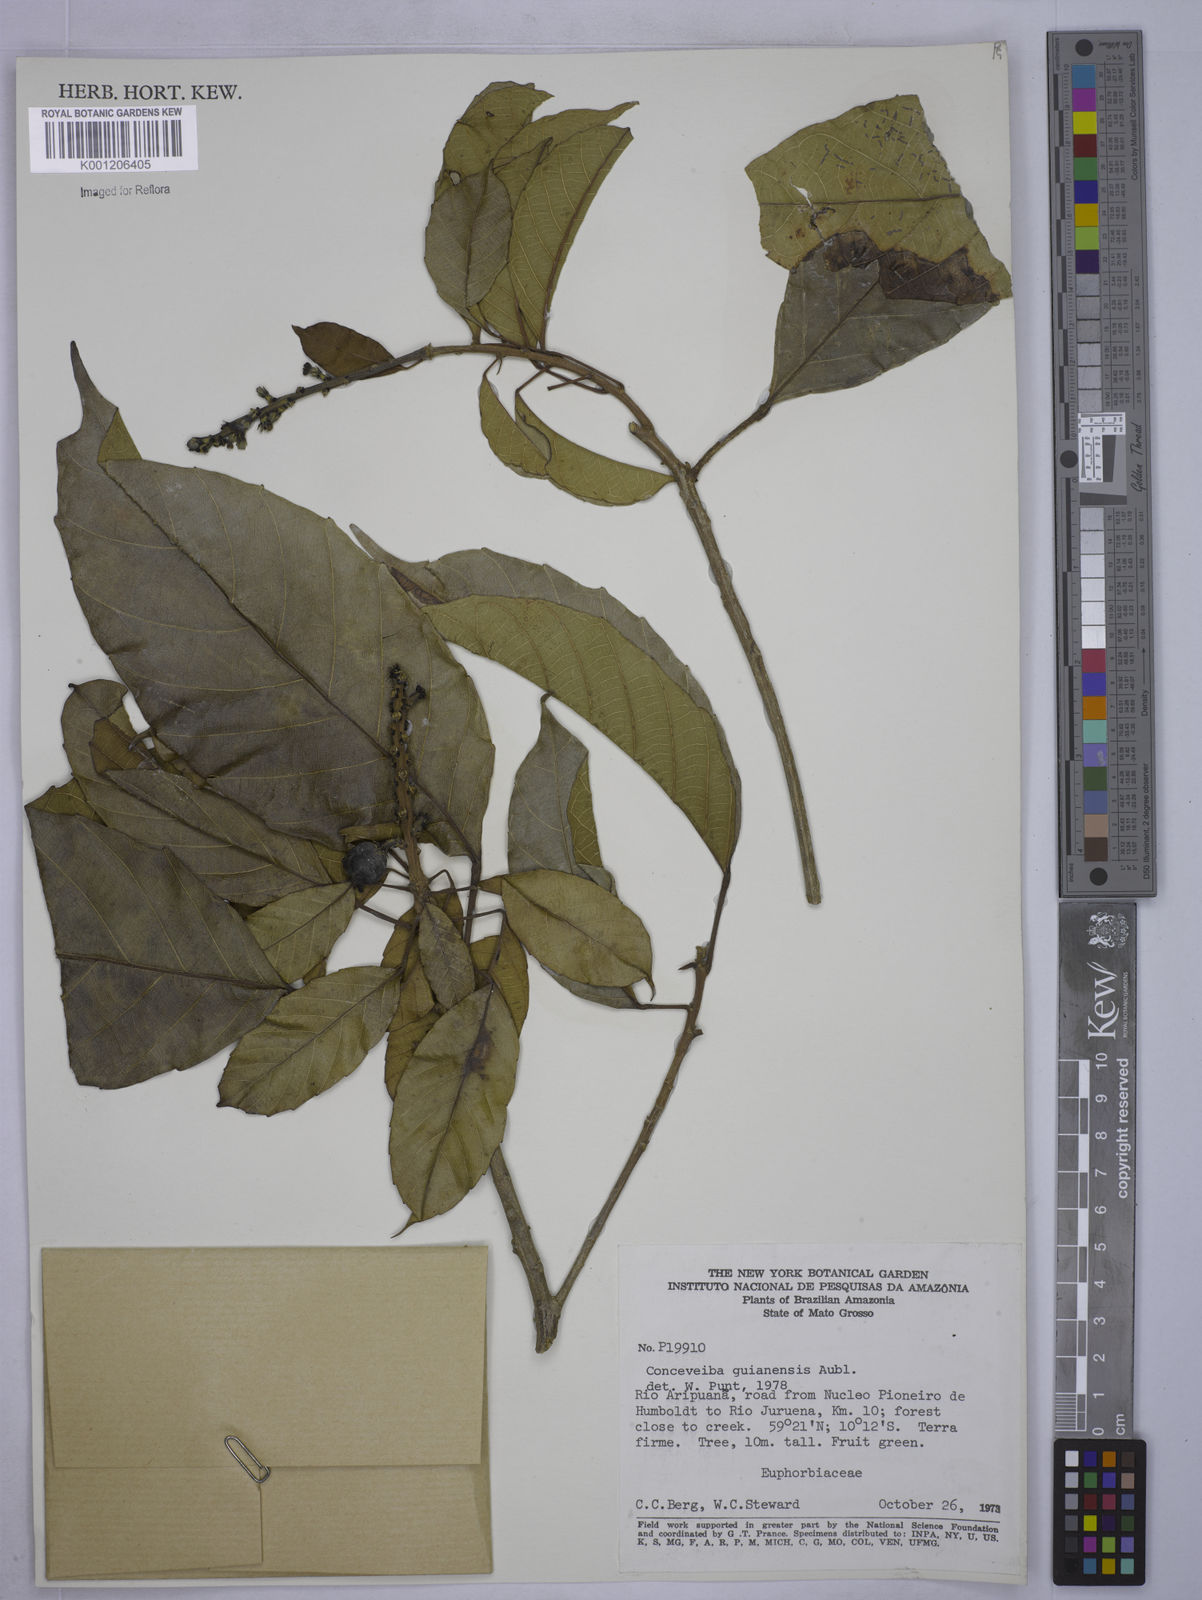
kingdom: Plantae
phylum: Tracheophyta
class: Magnoliopsida
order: Malpighiales
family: Euphorbiaceae
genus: Conceveiba
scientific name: Conceveiba guianensis
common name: Poatoru
